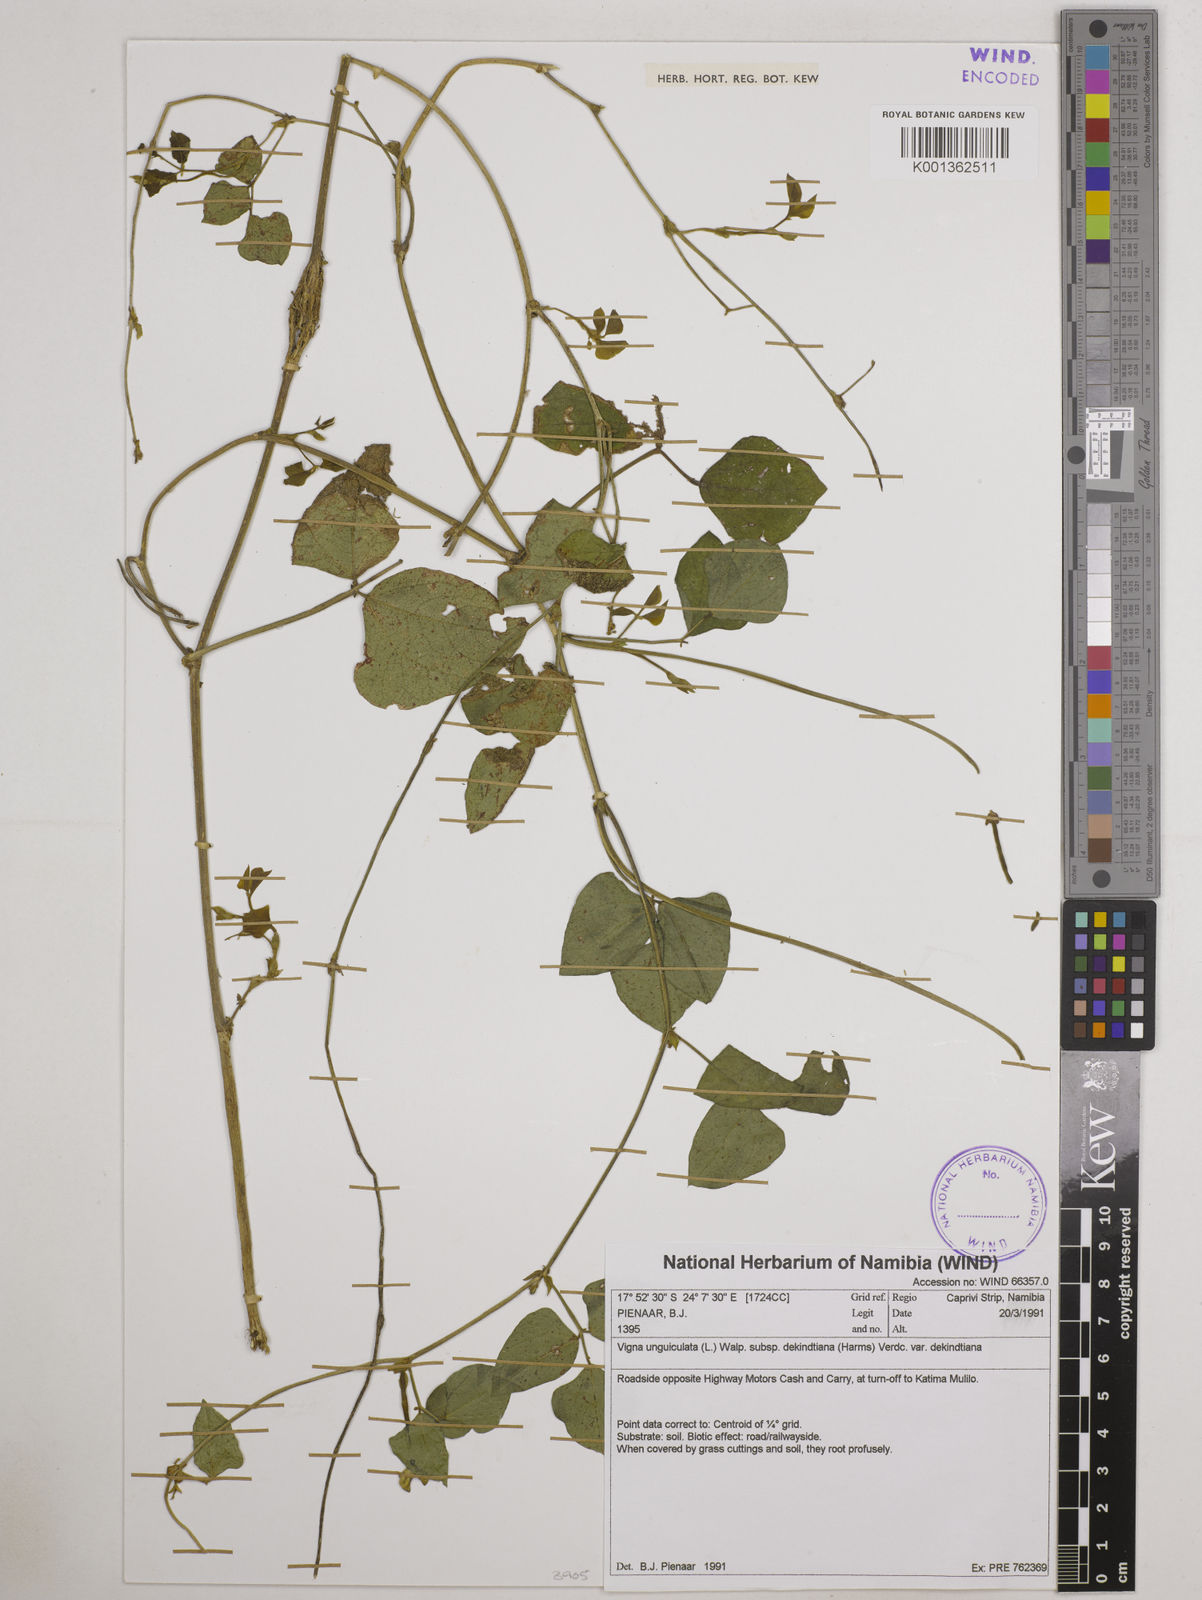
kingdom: Plantae
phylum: Tracheophyta
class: Magnoliopsida
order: Fabales
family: Fabaceae
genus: Vigna
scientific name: Vigna
